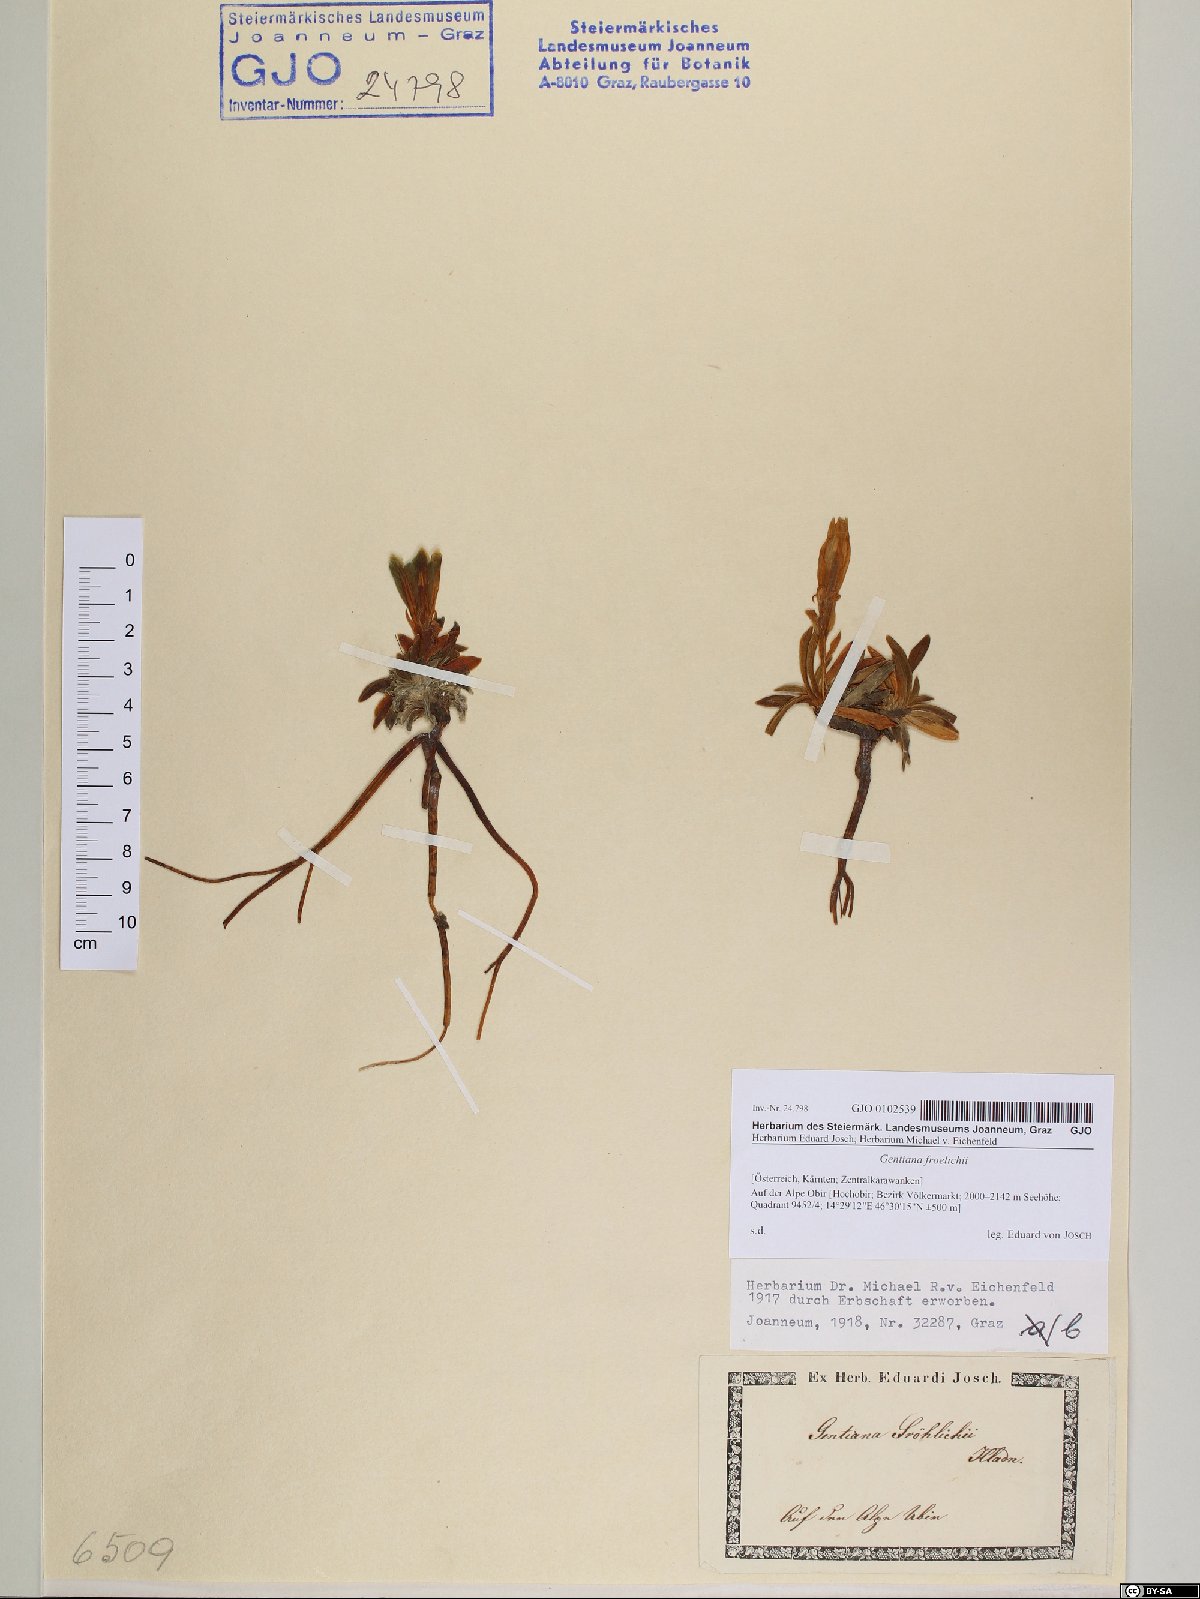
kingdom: Plantae
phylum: Tracheophyta
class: Magnoliopsida
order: Gentianales
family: Gentianaceae
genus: Gentiana
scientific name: Gentiana froelichii
